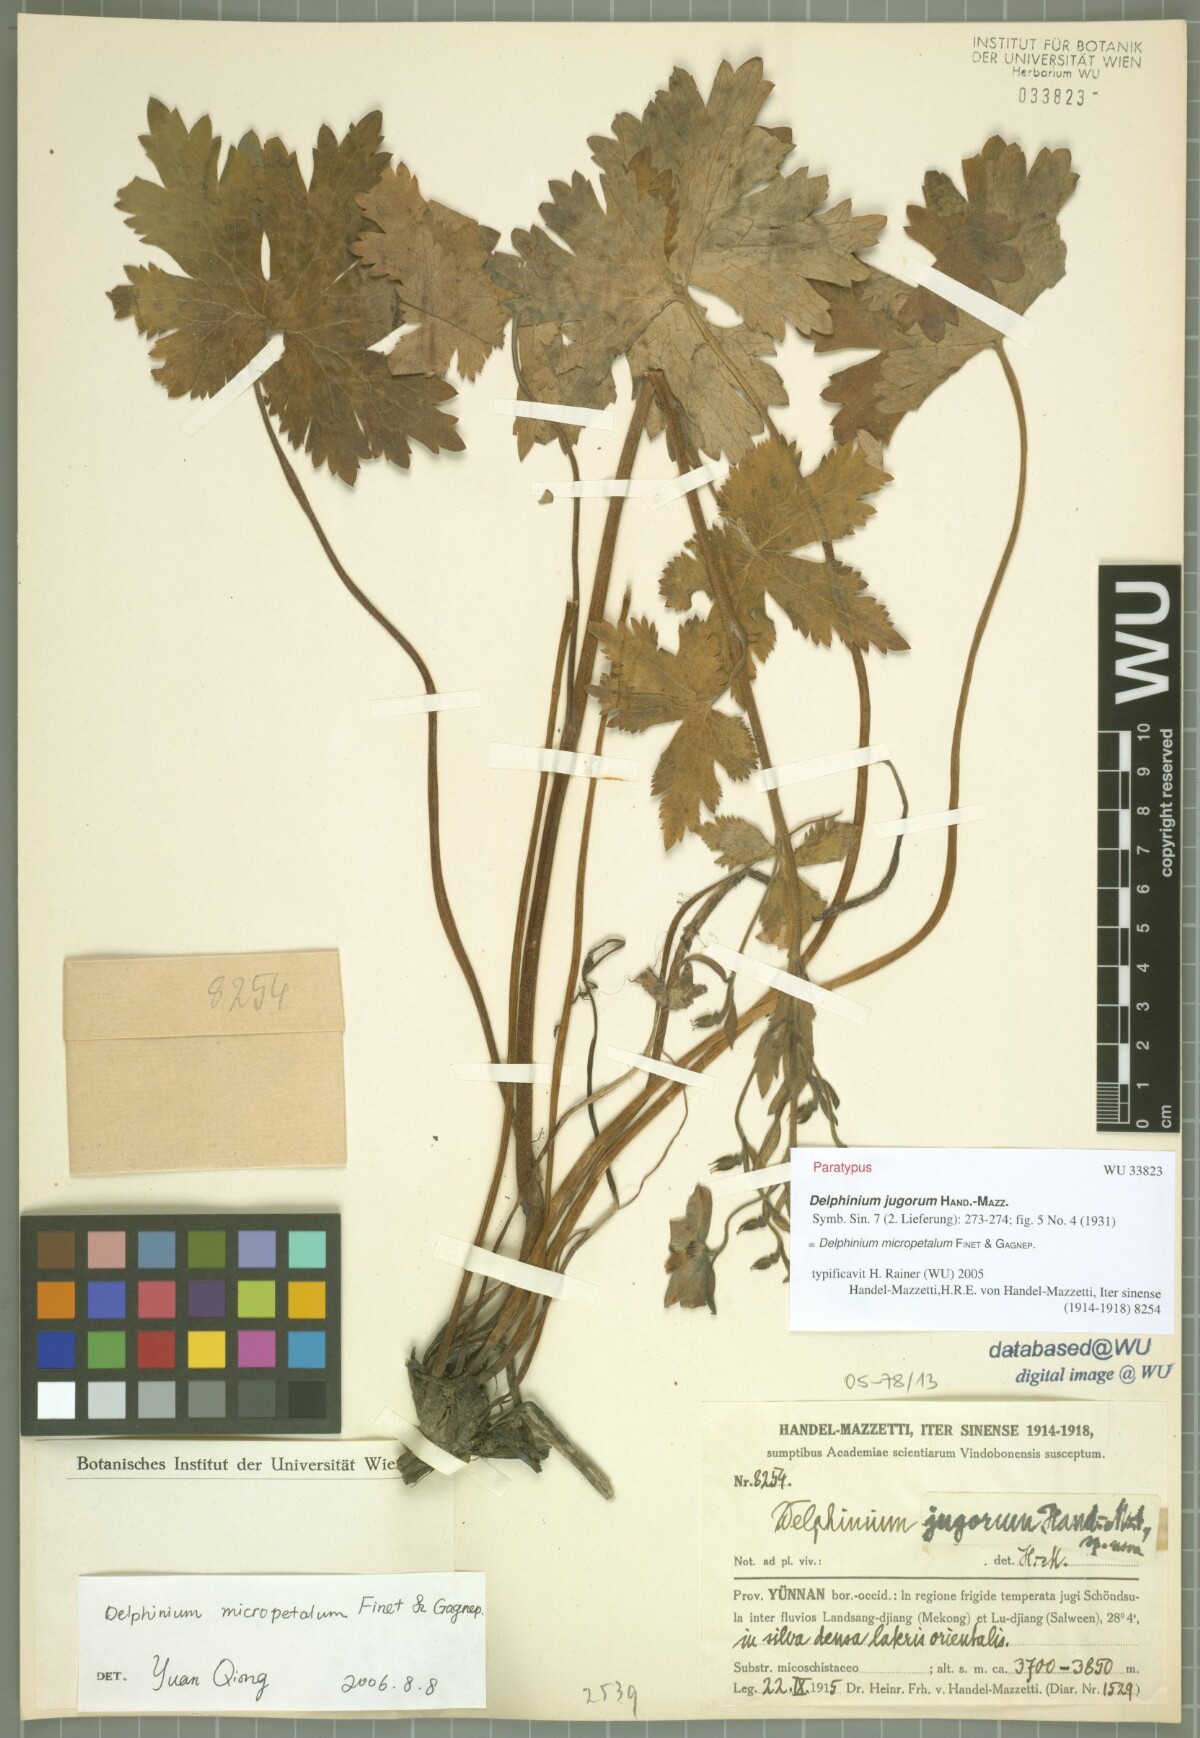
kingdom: Plantae
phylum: Tracheophyta
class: Magnoliopsida
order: Ranunculales
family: Ranunculaceae
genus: Delphinium
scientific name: Delphinium micropetalum
